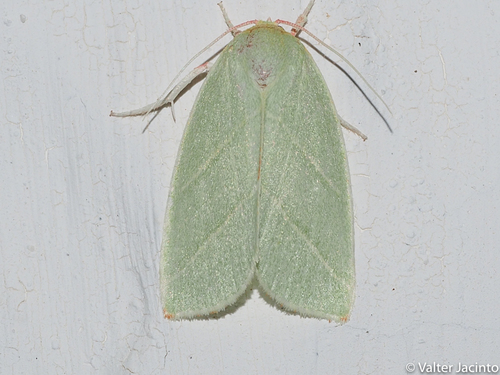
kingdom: Animalia
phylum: Arthropoda
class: Insecta
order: Lepidoptera
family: Nolidae
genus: Bena
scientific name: Bena bicolorana
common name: Scarce silver-lines
